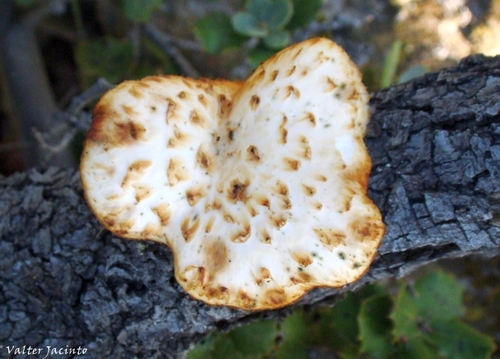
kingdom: Fungi
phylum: Basidiomycota
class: Agaricomycetes
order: Polyporales
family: Polyporaceae
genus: Polyporus
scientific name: Polyporus tuberaster
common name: Tuberous polypore
